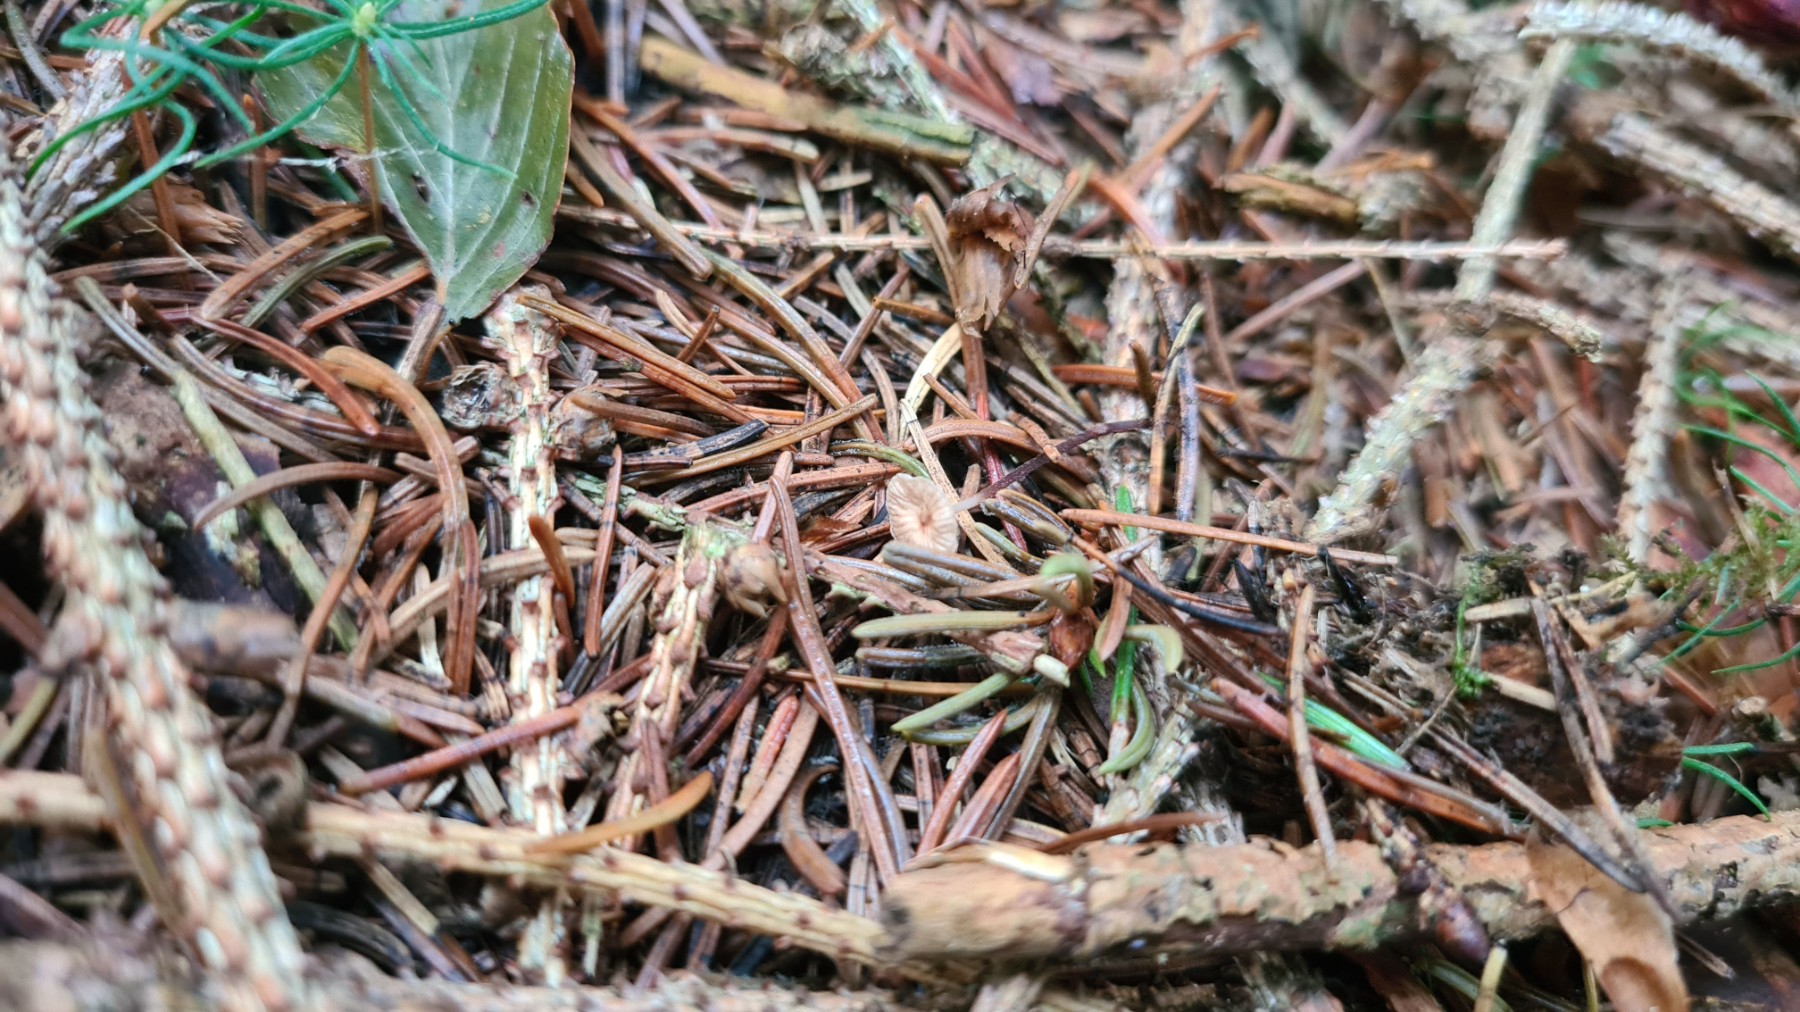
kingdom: Fungi
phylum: Basidiomycota
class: Agaricomycetes
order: Agaricales
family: Omphalotaceae
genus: Paragymnopus
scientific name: Paragymnopus perforans
